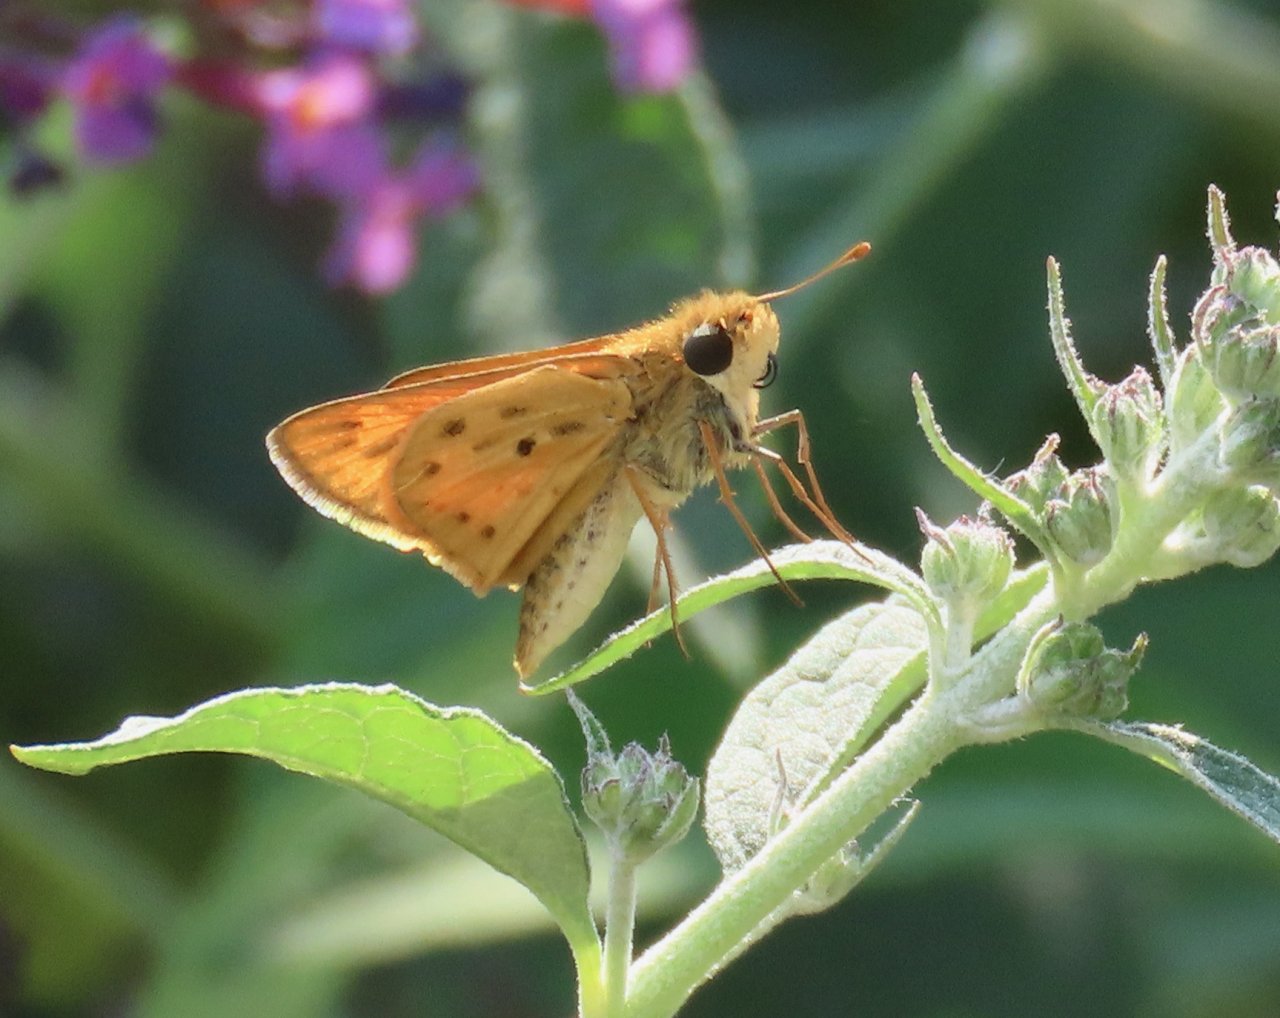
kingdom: Animalia
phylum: Arthropoda
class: Insecta
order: Lepidoptera
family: Hesperiidae
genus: Hylephila
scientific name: Hylephila phyleus
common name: Fiery Skipper
